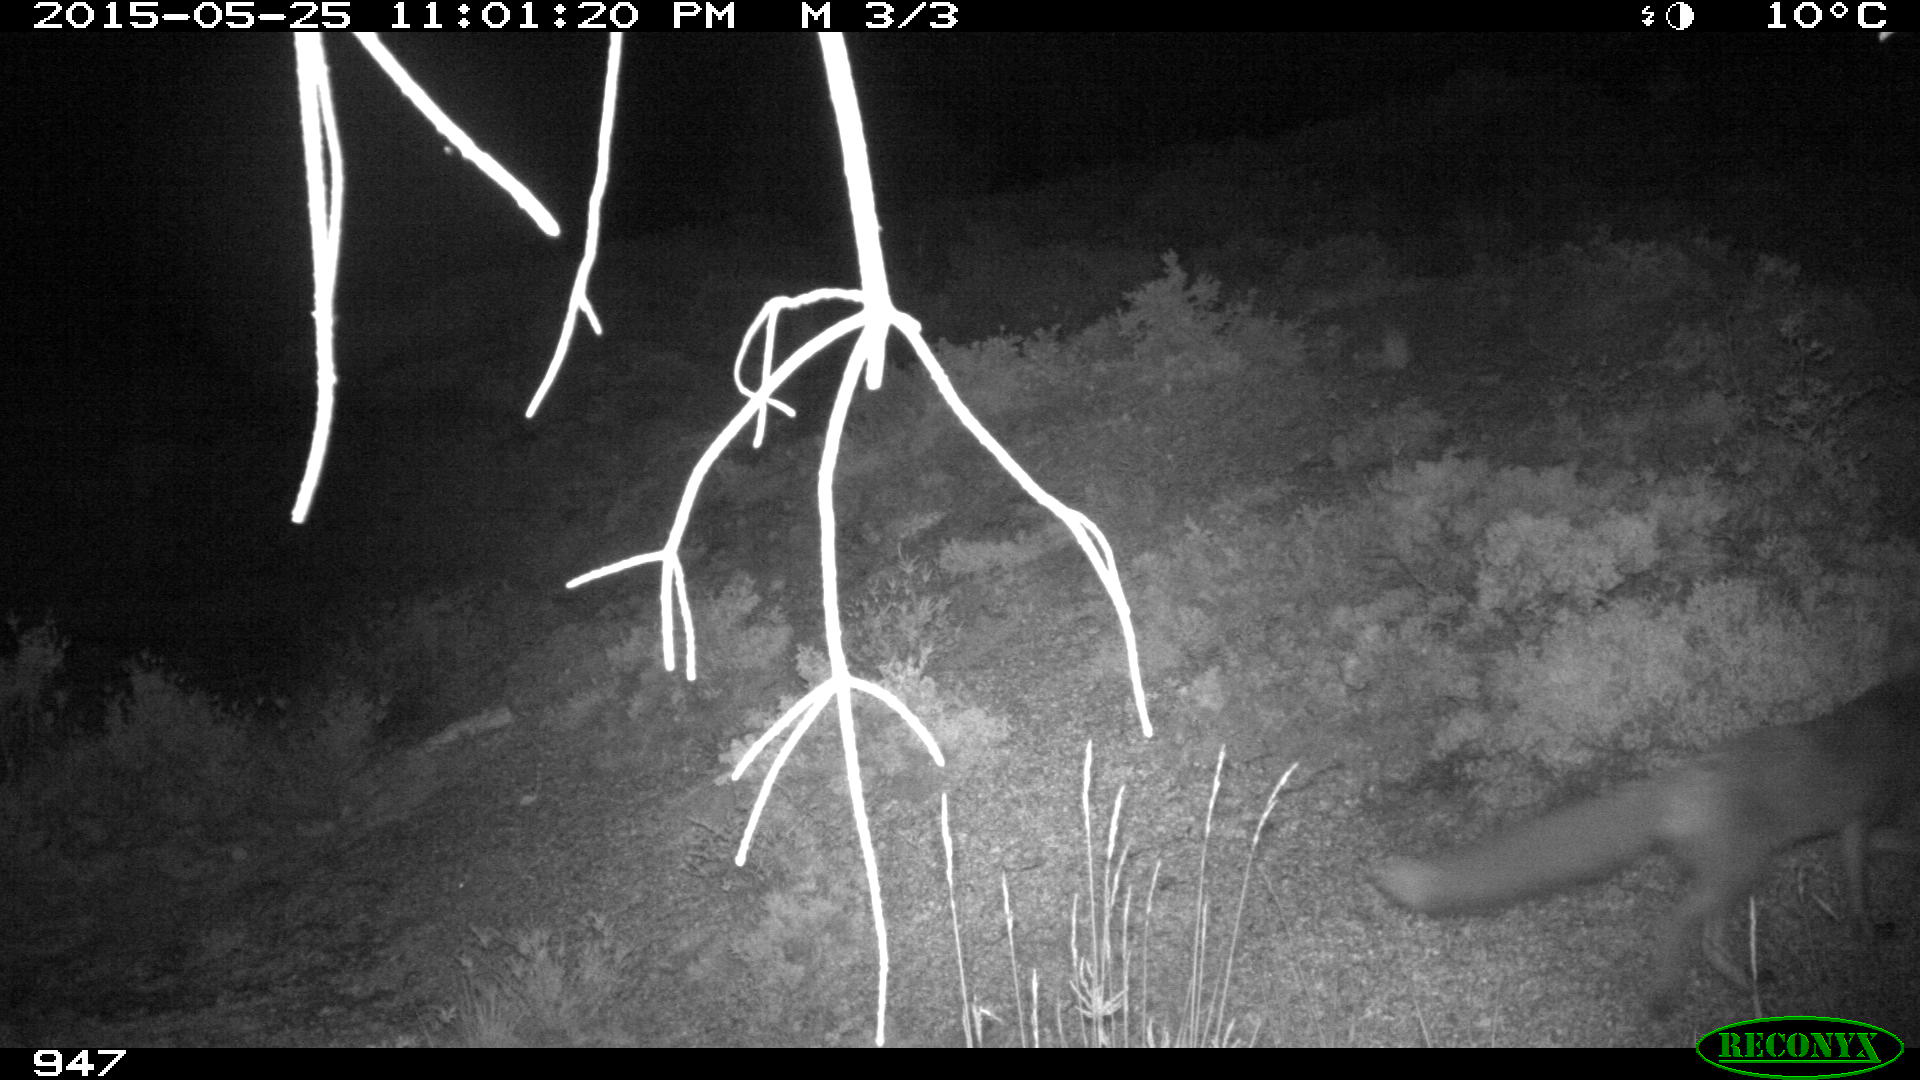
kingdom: Animalia
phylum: Chordata
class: Mammalia
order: Carnivora
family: Canidae
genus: Vulpes
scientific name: Vulpes vulpes
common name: Red fox
